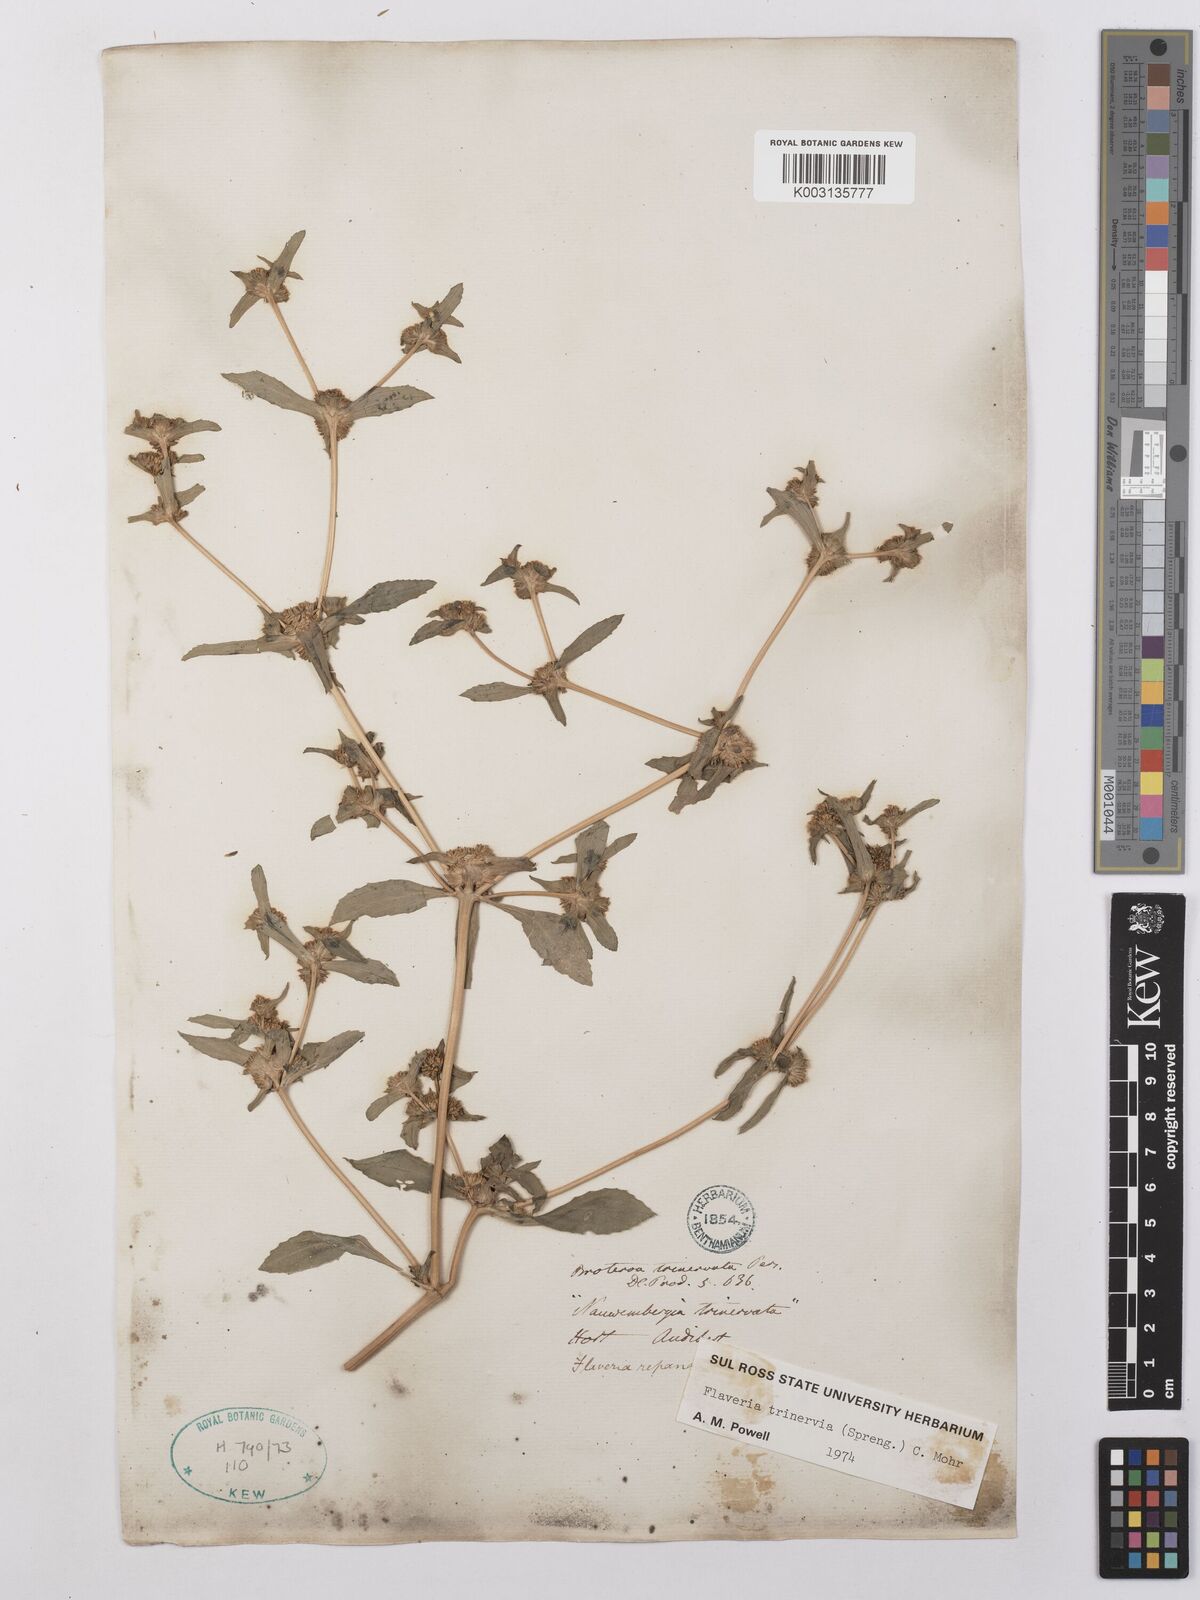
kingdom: Plantae
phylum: Tracheophyta
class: Magnoliopsida
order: Asterales
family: Asteraceae
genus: Flaveria
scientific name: Flaveria trinervia
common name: Clustered yellowtops
